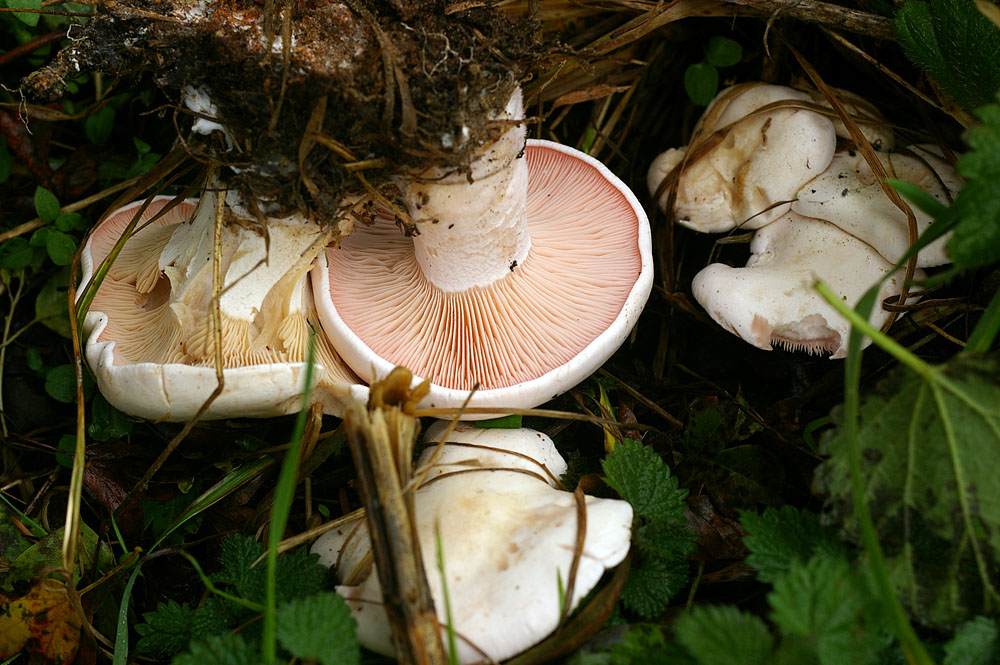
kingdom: Fungi
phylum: Basidiomycota
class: Agaricomycetes
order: Agaricales
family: Tricholomataceae
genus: Pseudoclitopilus
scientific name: Pseudoclitopilus rhodoleucus
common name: rosabladet tragtridderhat
